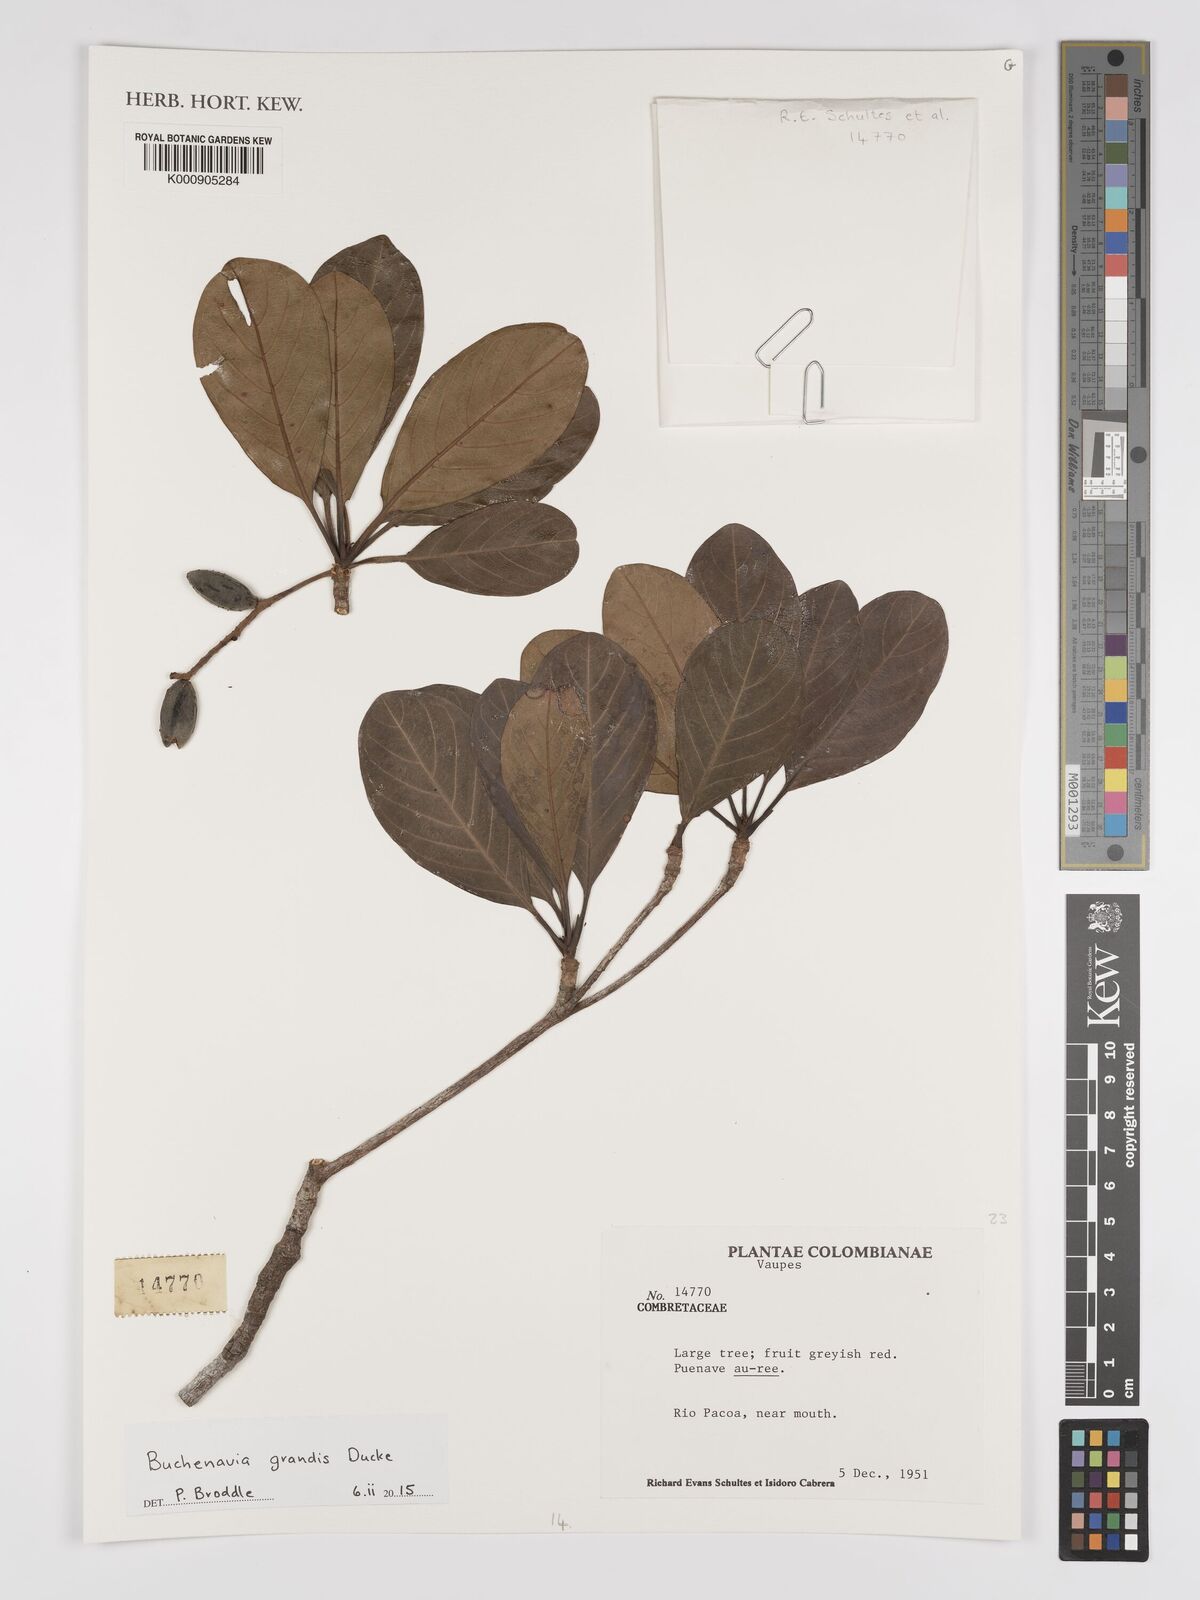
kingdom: Plantae
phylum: Tracheophyta
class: Magnoliopsida
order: Myrtales
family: Combretaceae
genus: Terminalia
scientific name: Terminalia grandis
